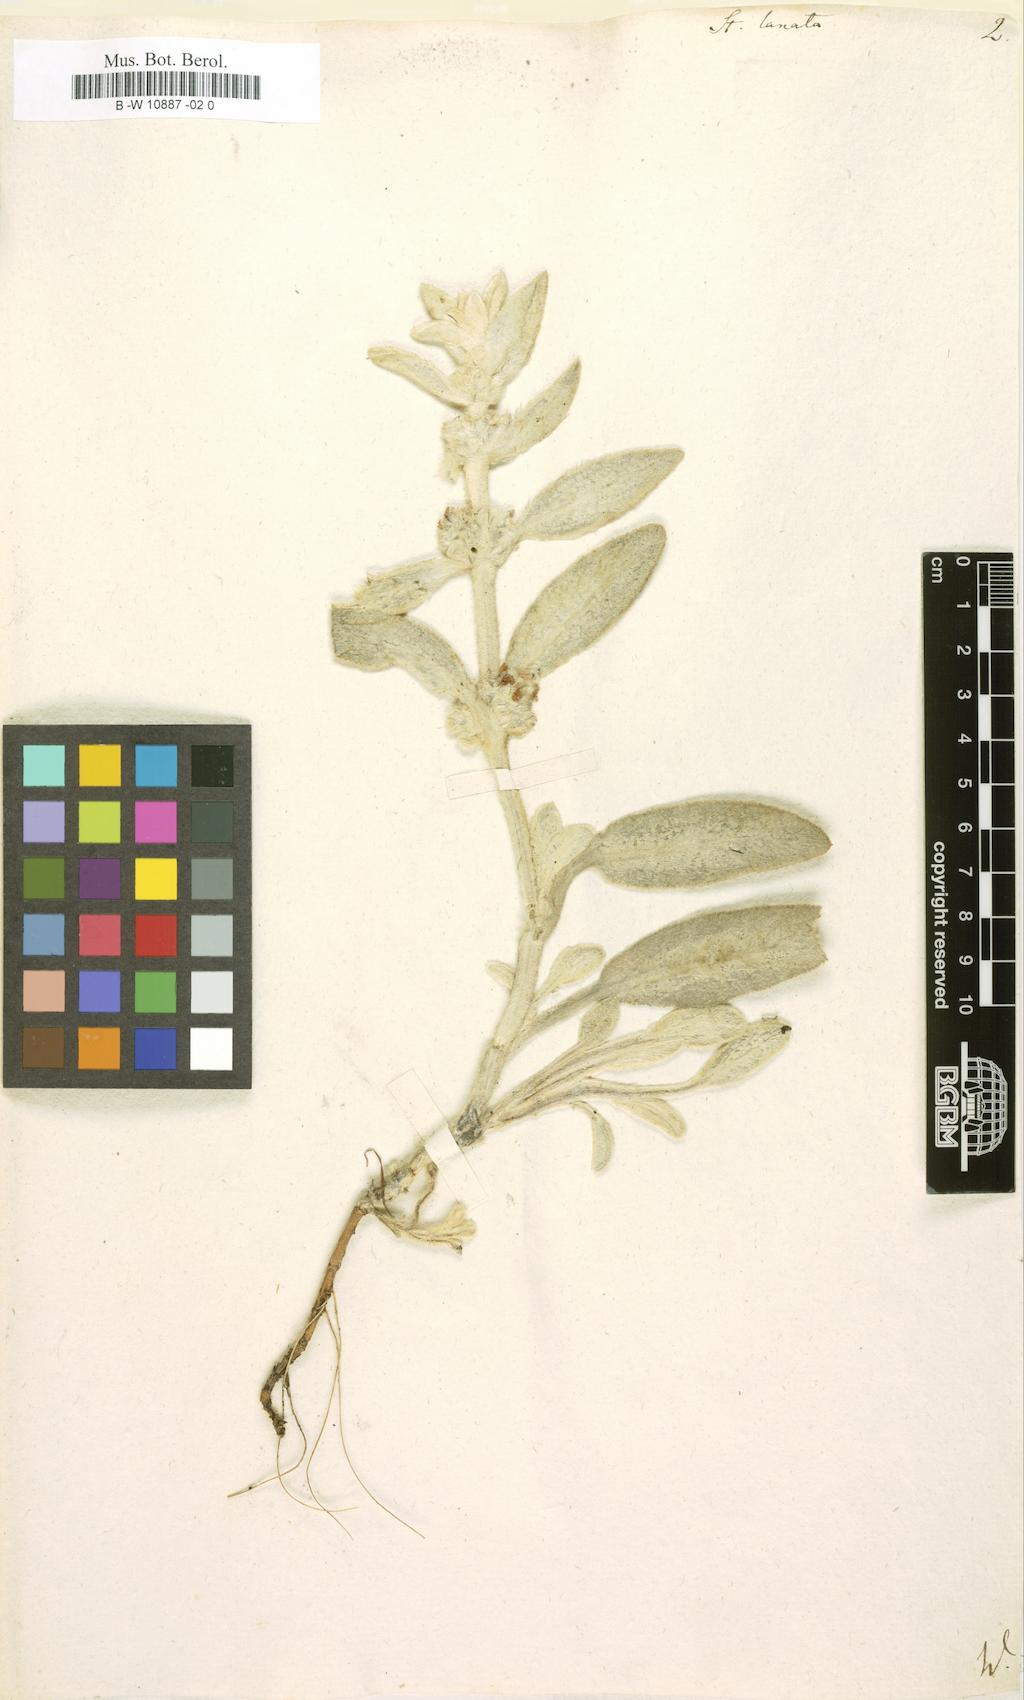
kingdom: Plantae
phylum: Tracheophyta
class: Magnoliopsida
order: Lamiales
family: Lamiaceae
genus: Stachys
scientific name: Stachys palaestina
